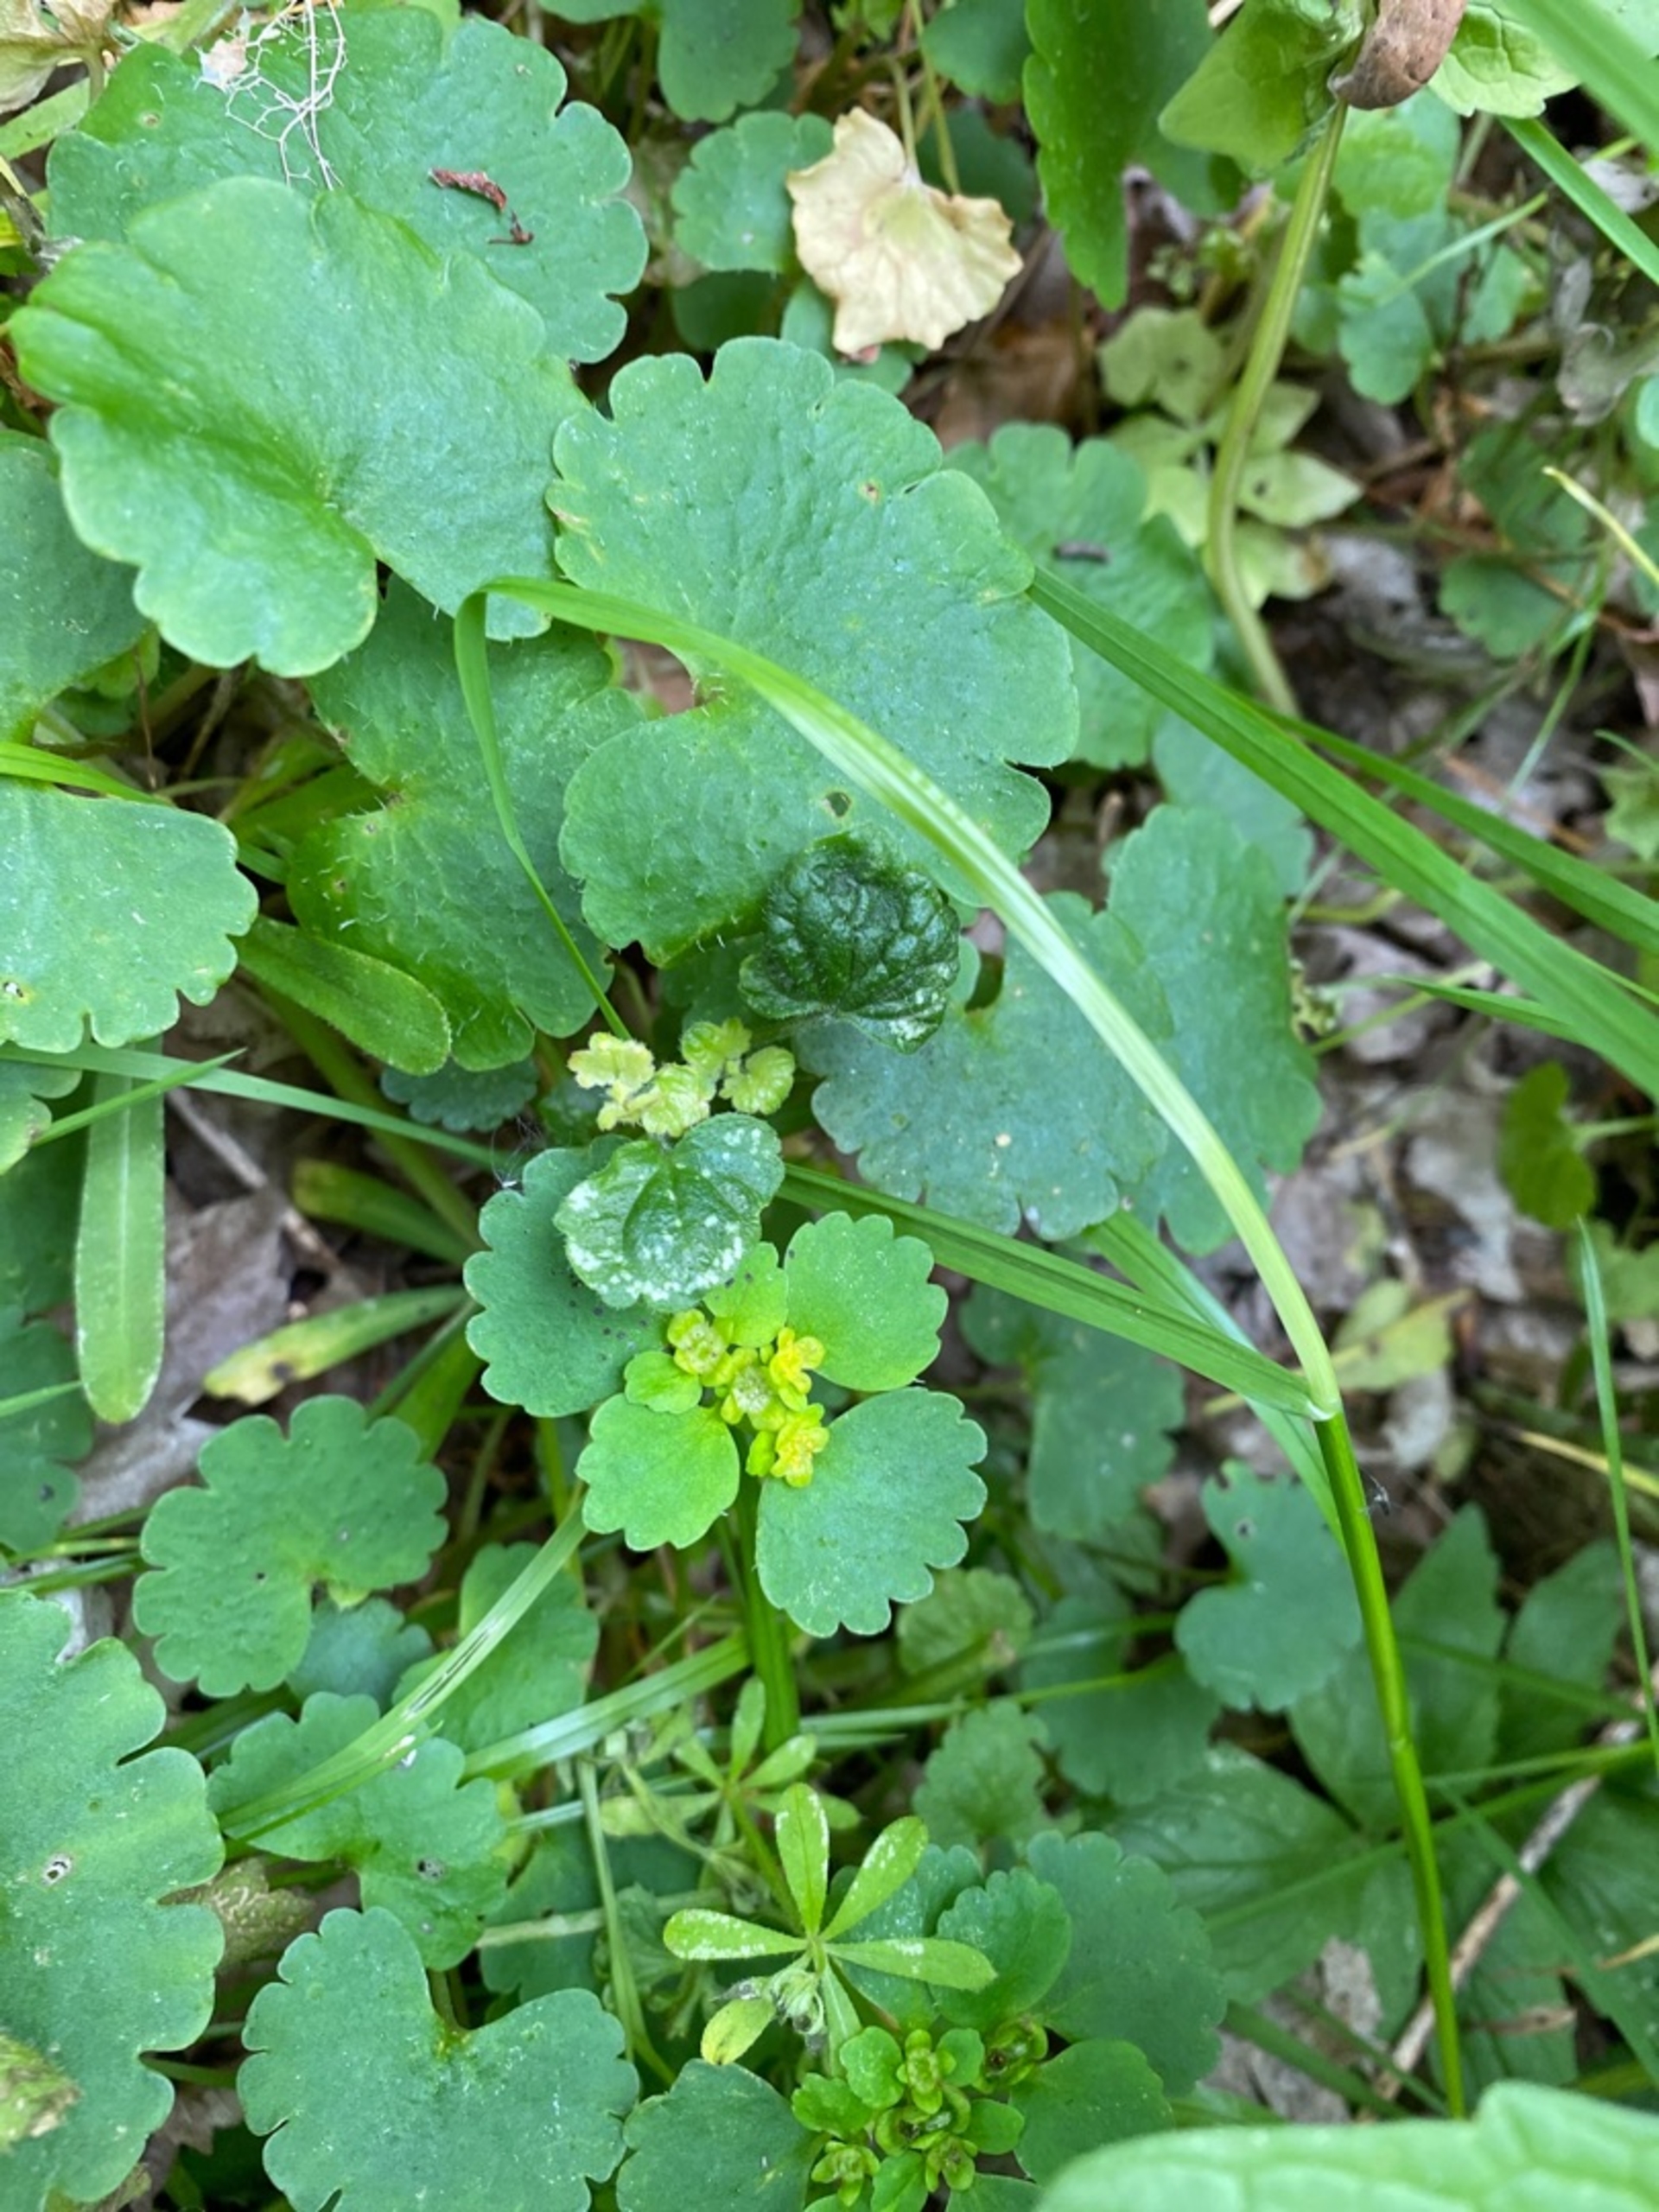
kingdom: Plantae
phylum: Tracheophyta
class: Magnoliopsida
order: Saxifragales
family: Saxifragaceae
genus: Chrysosplenium
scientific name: Chrysosplenium alternifolium
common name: Almindelig milturt
